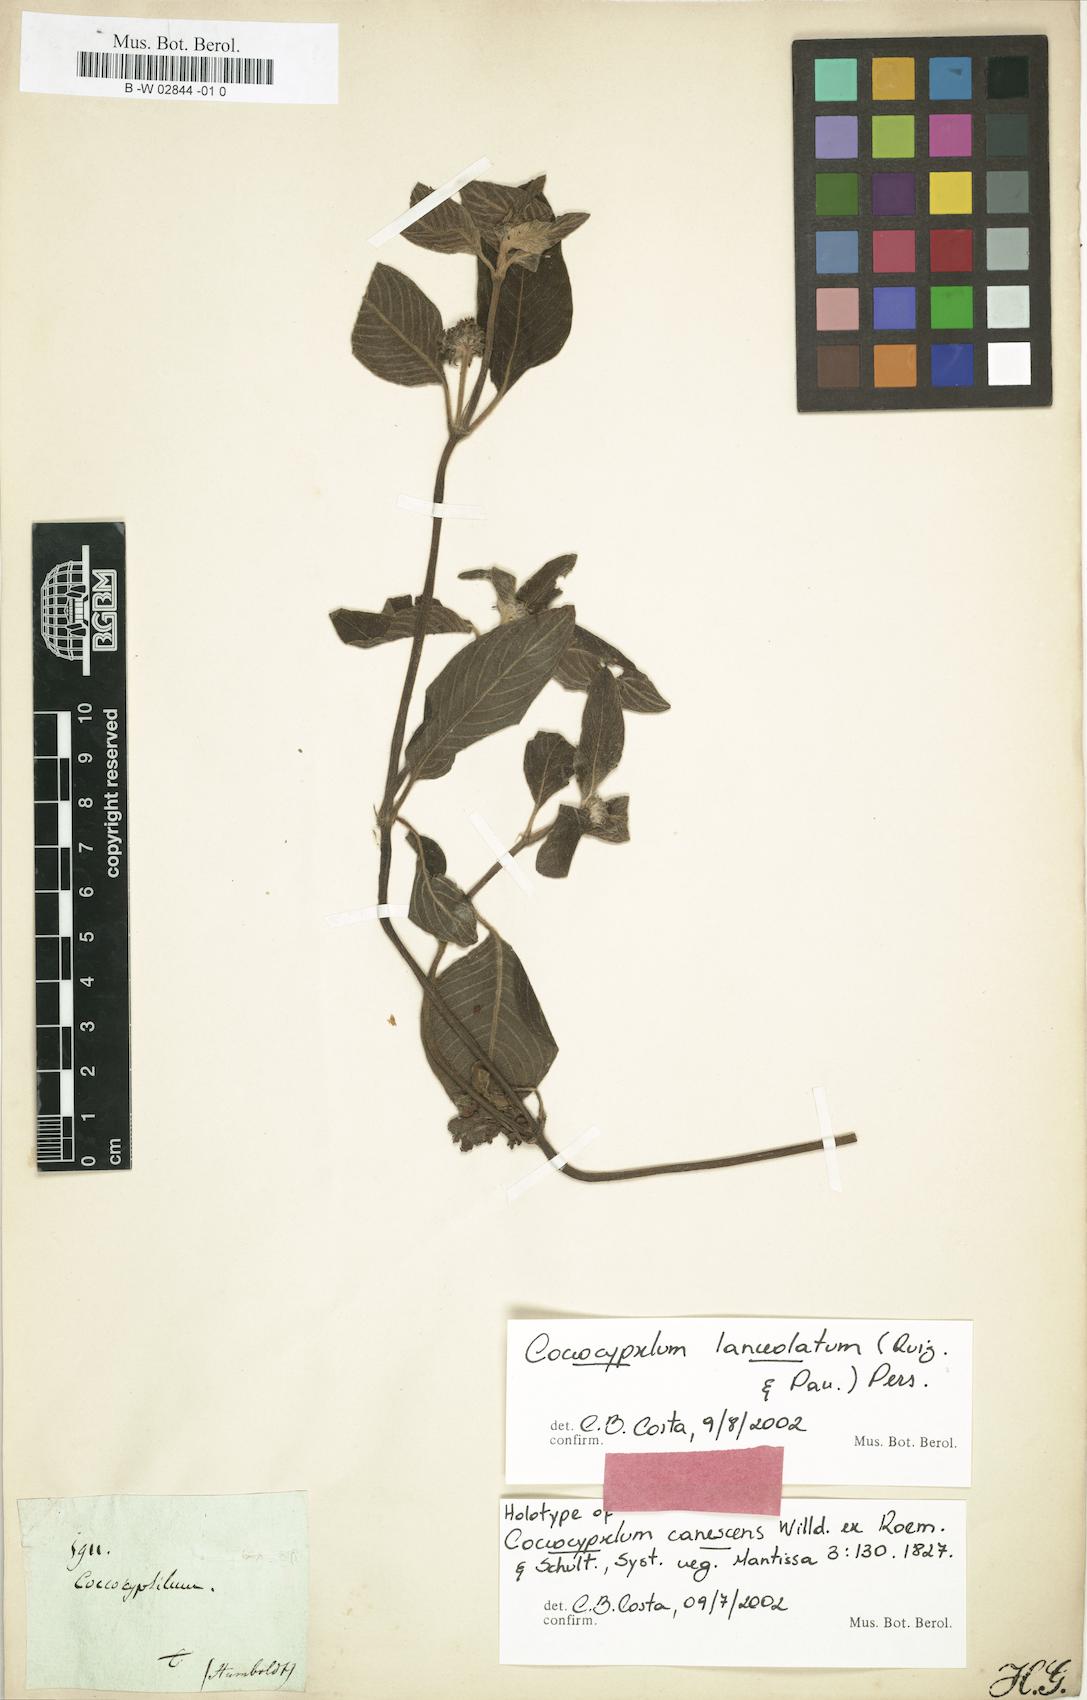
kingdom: Plantae
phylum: Tracheophyta
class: Magnoliopsida
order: Gentianales
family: Rubiaceae
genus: Coccocypselum
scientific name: Coccocypselum lanceolatum
